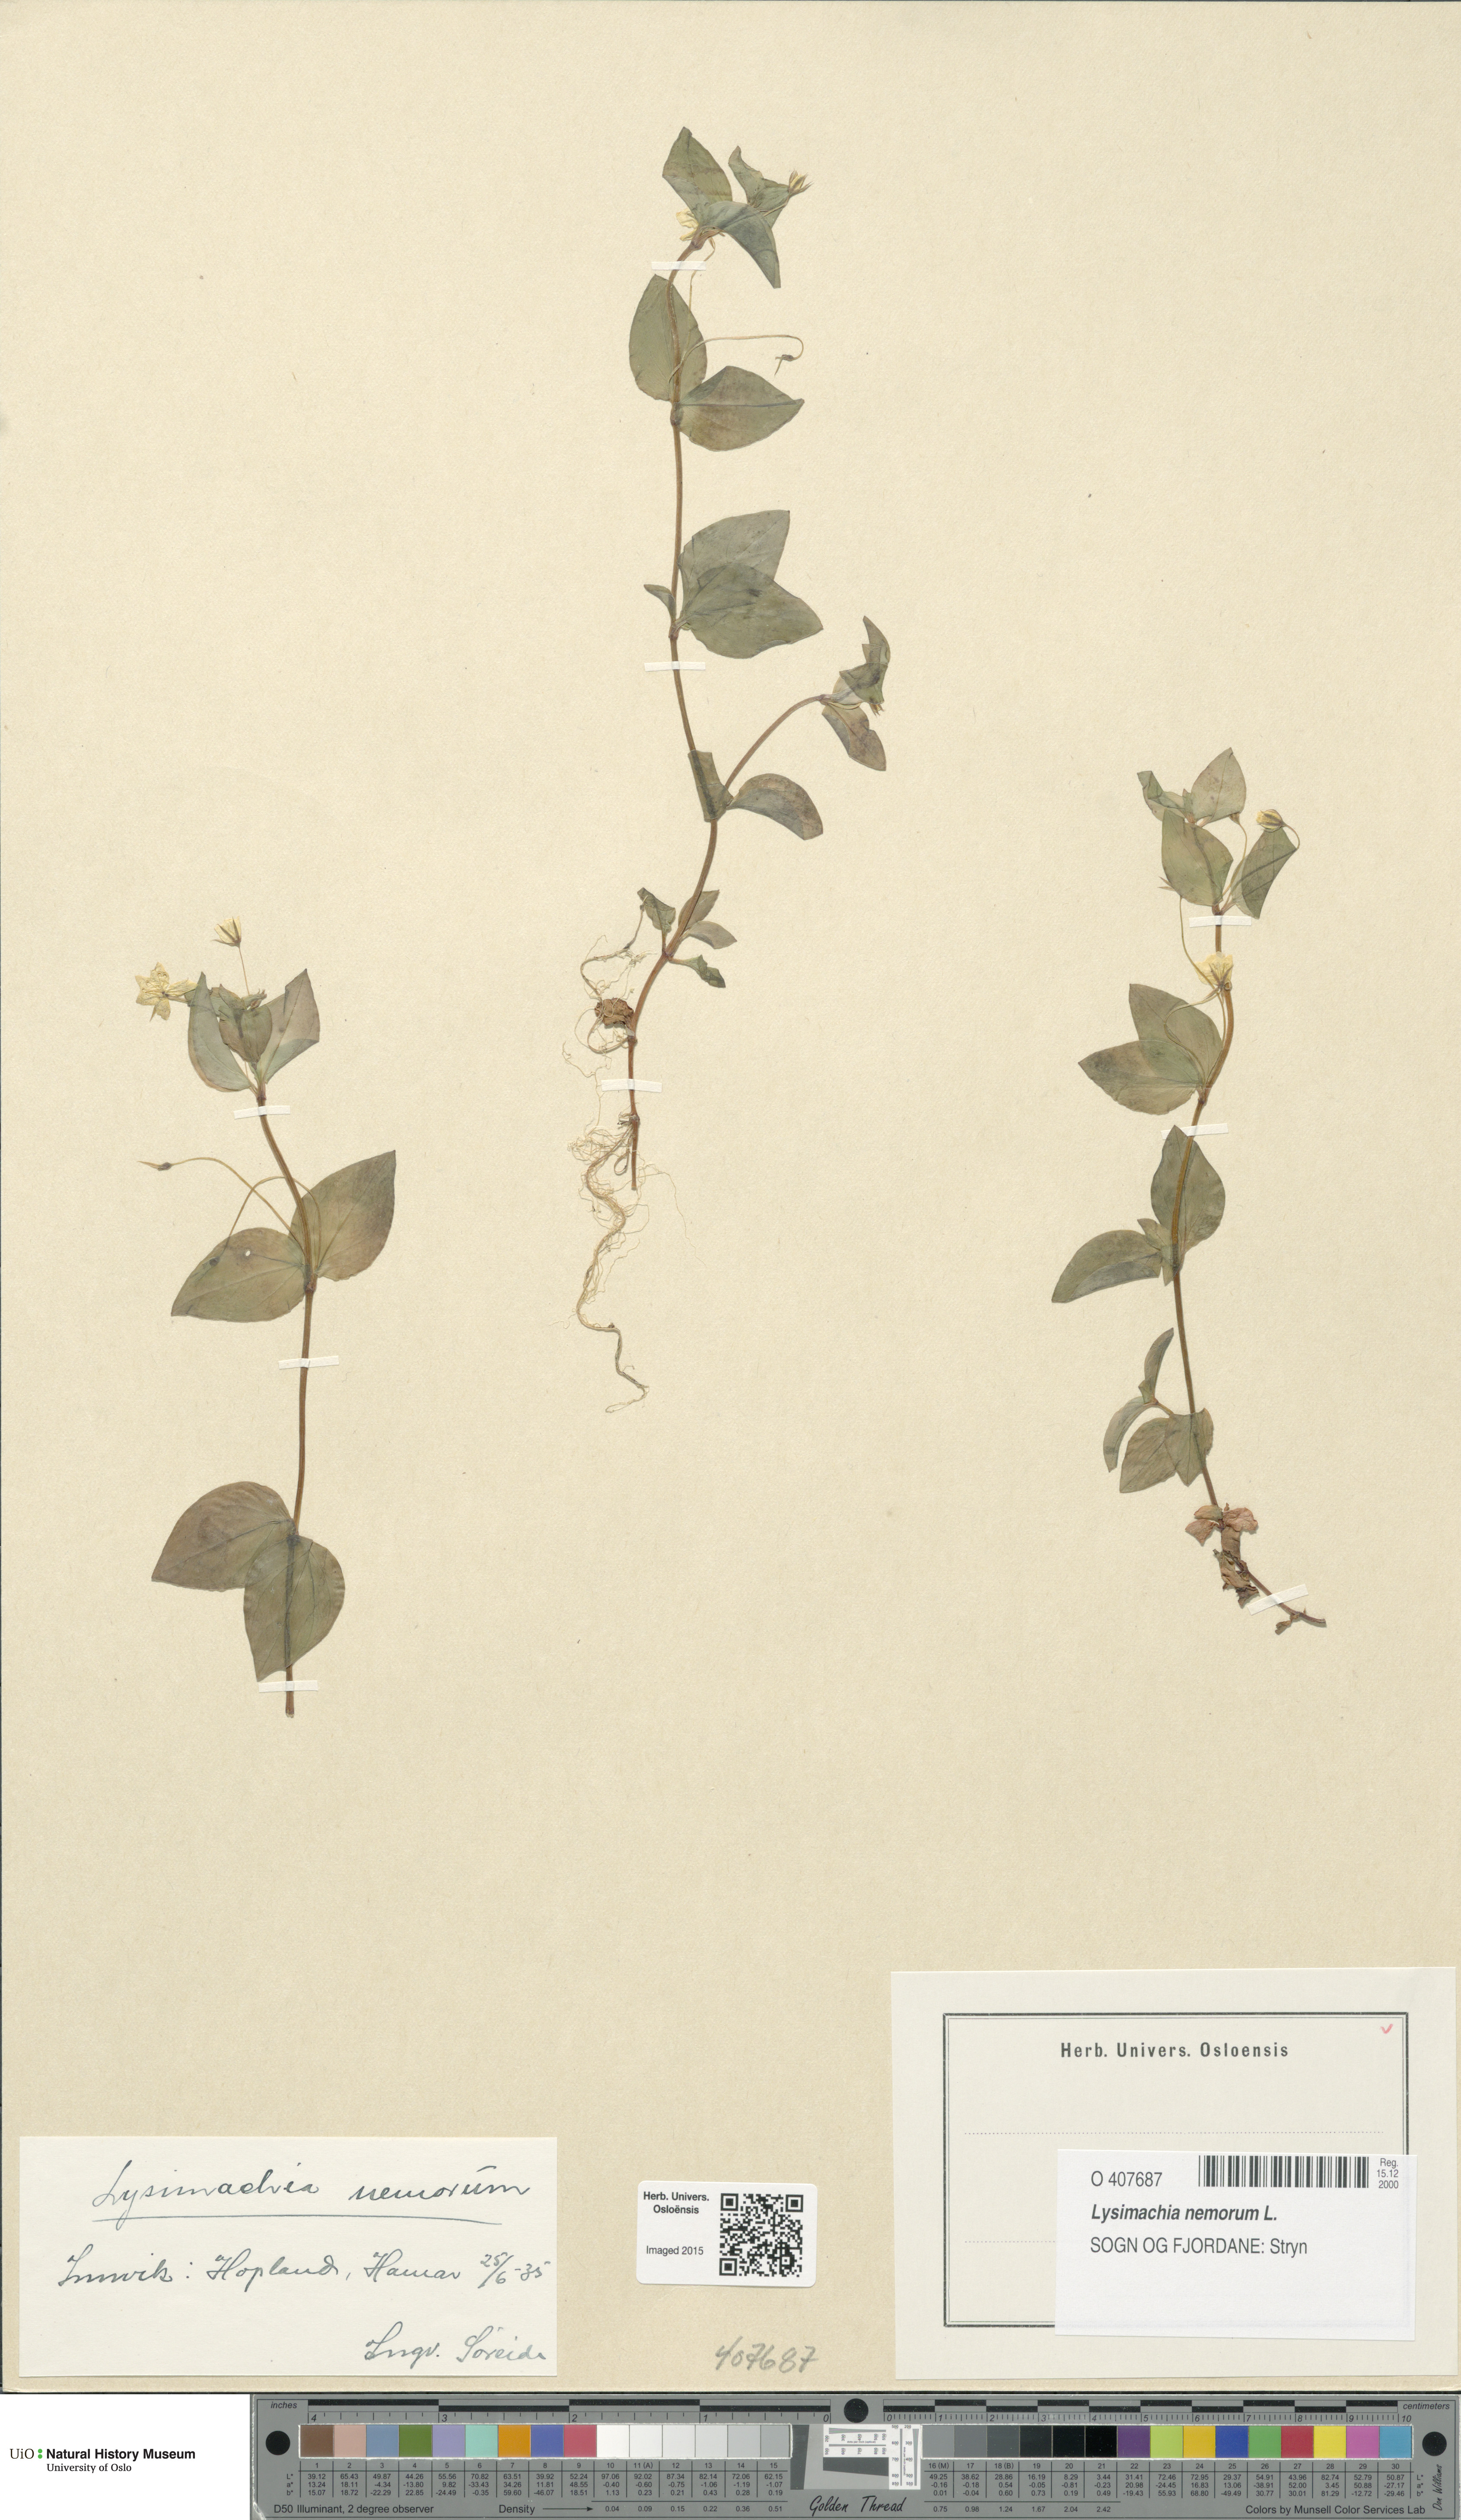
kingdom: Plantae
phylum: Tracheophyta
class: Magnoliopsida
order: Ericales
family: Primulaceae
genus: Lysimachia
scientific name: Lysimachia nemorum
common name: Yellow pimpernel
